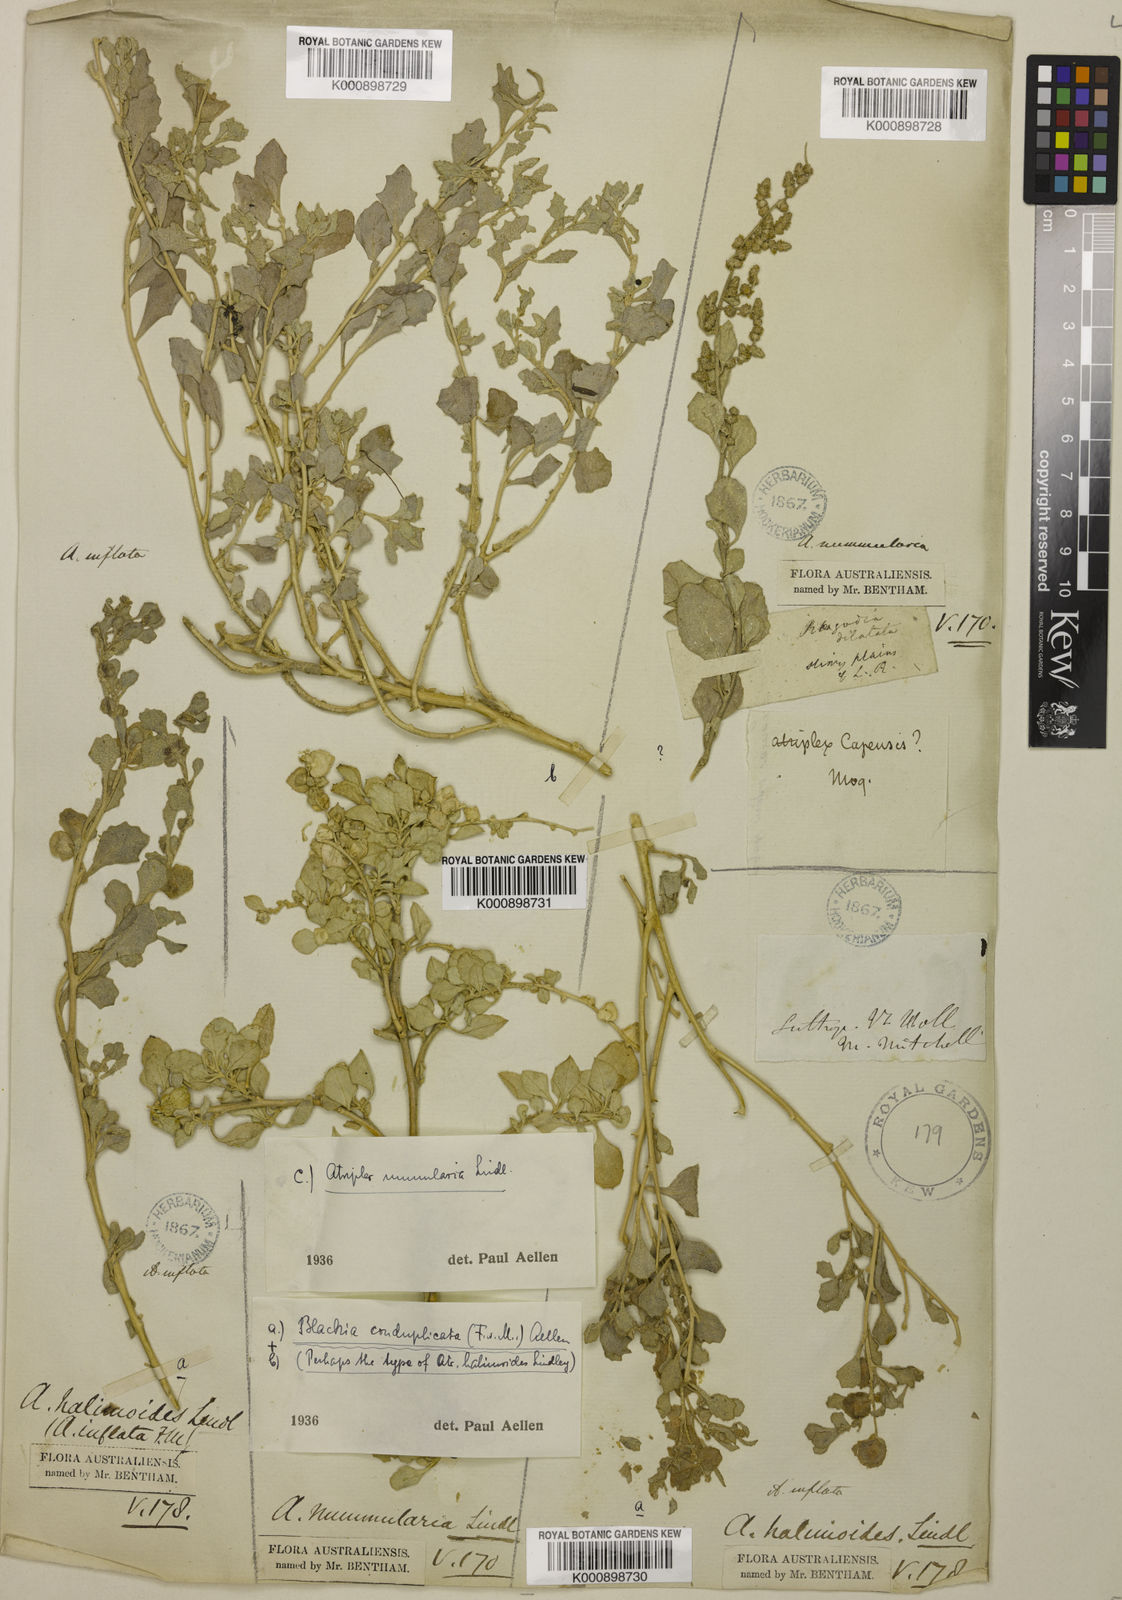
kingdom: Plantae
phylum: Tracheophyta
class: Magnoliopsida
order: Caryophyllales
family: Amaranthaceae
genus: Atriplex
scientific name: Atriplex lindleyi
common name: Lindley's saltbush
